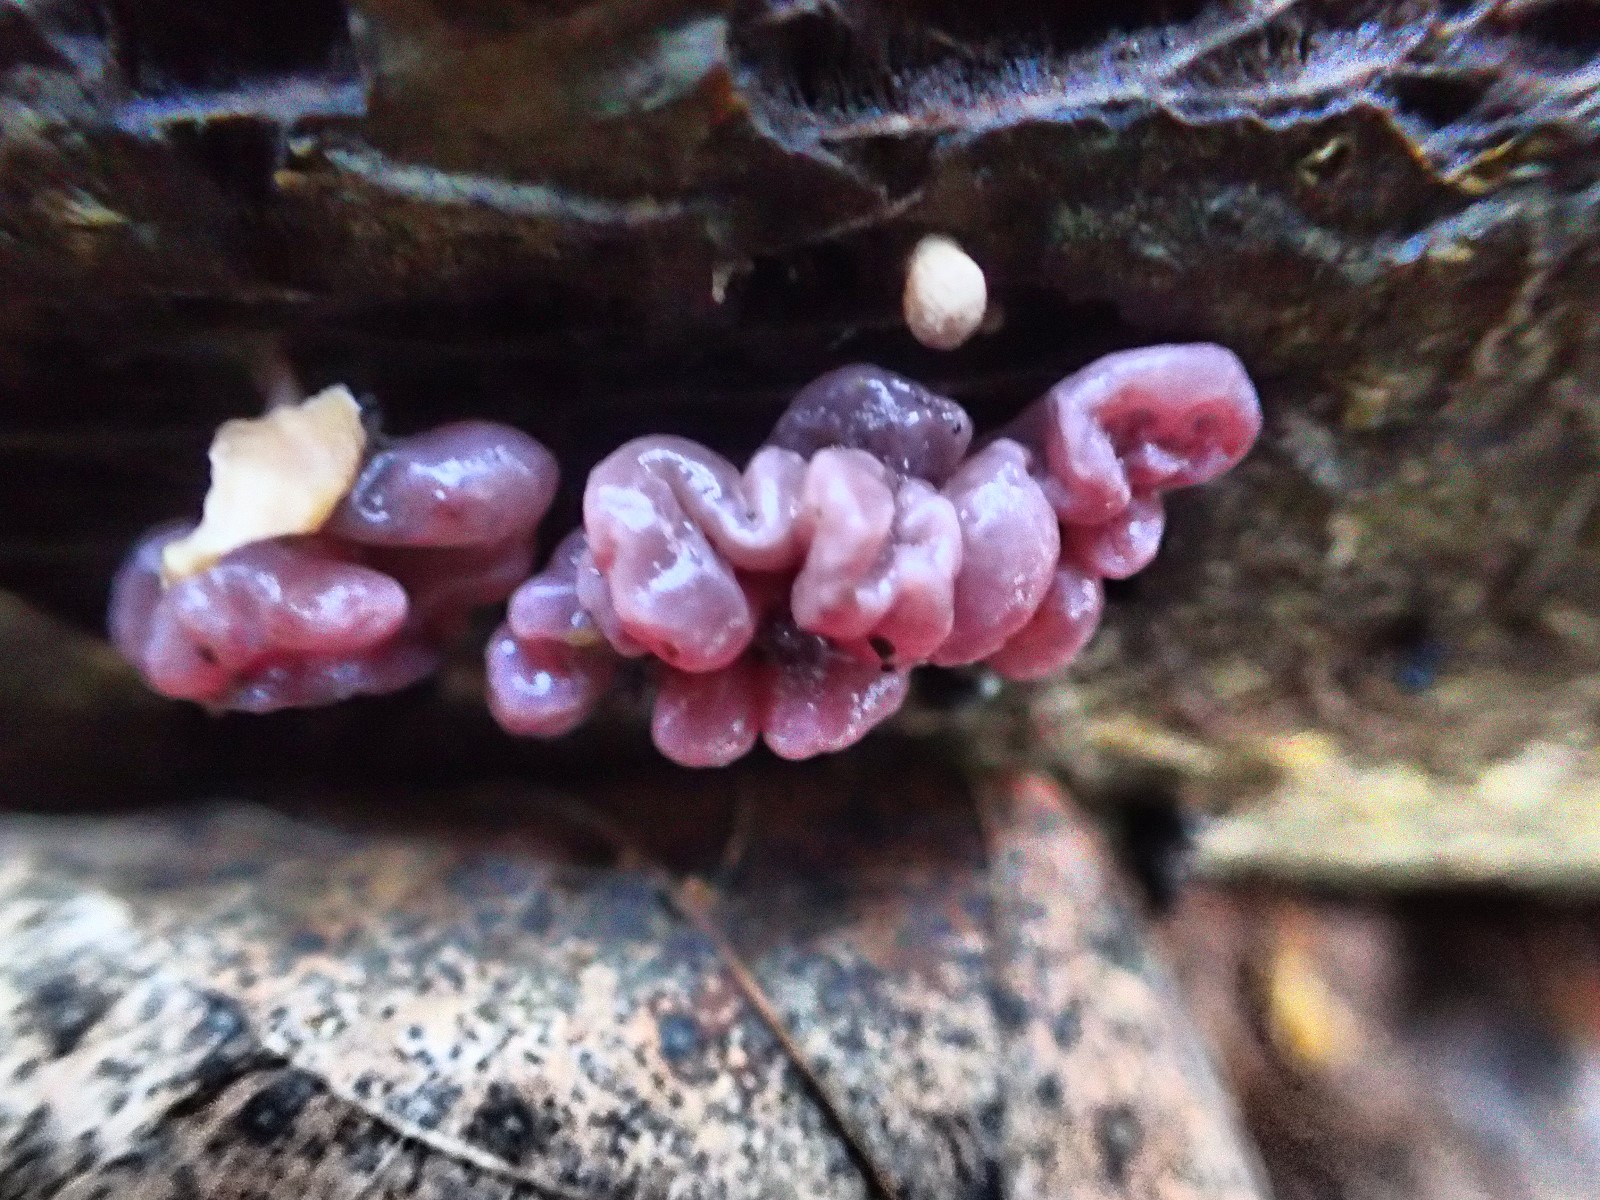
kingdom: Fungi
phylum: Ascomycota
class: Leotiomycetes
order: Helotiales
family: Gelatinodiscaceae
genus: Ascocoryne
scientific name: Ascocoryne sarcoides
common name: rødlilla sejskive
